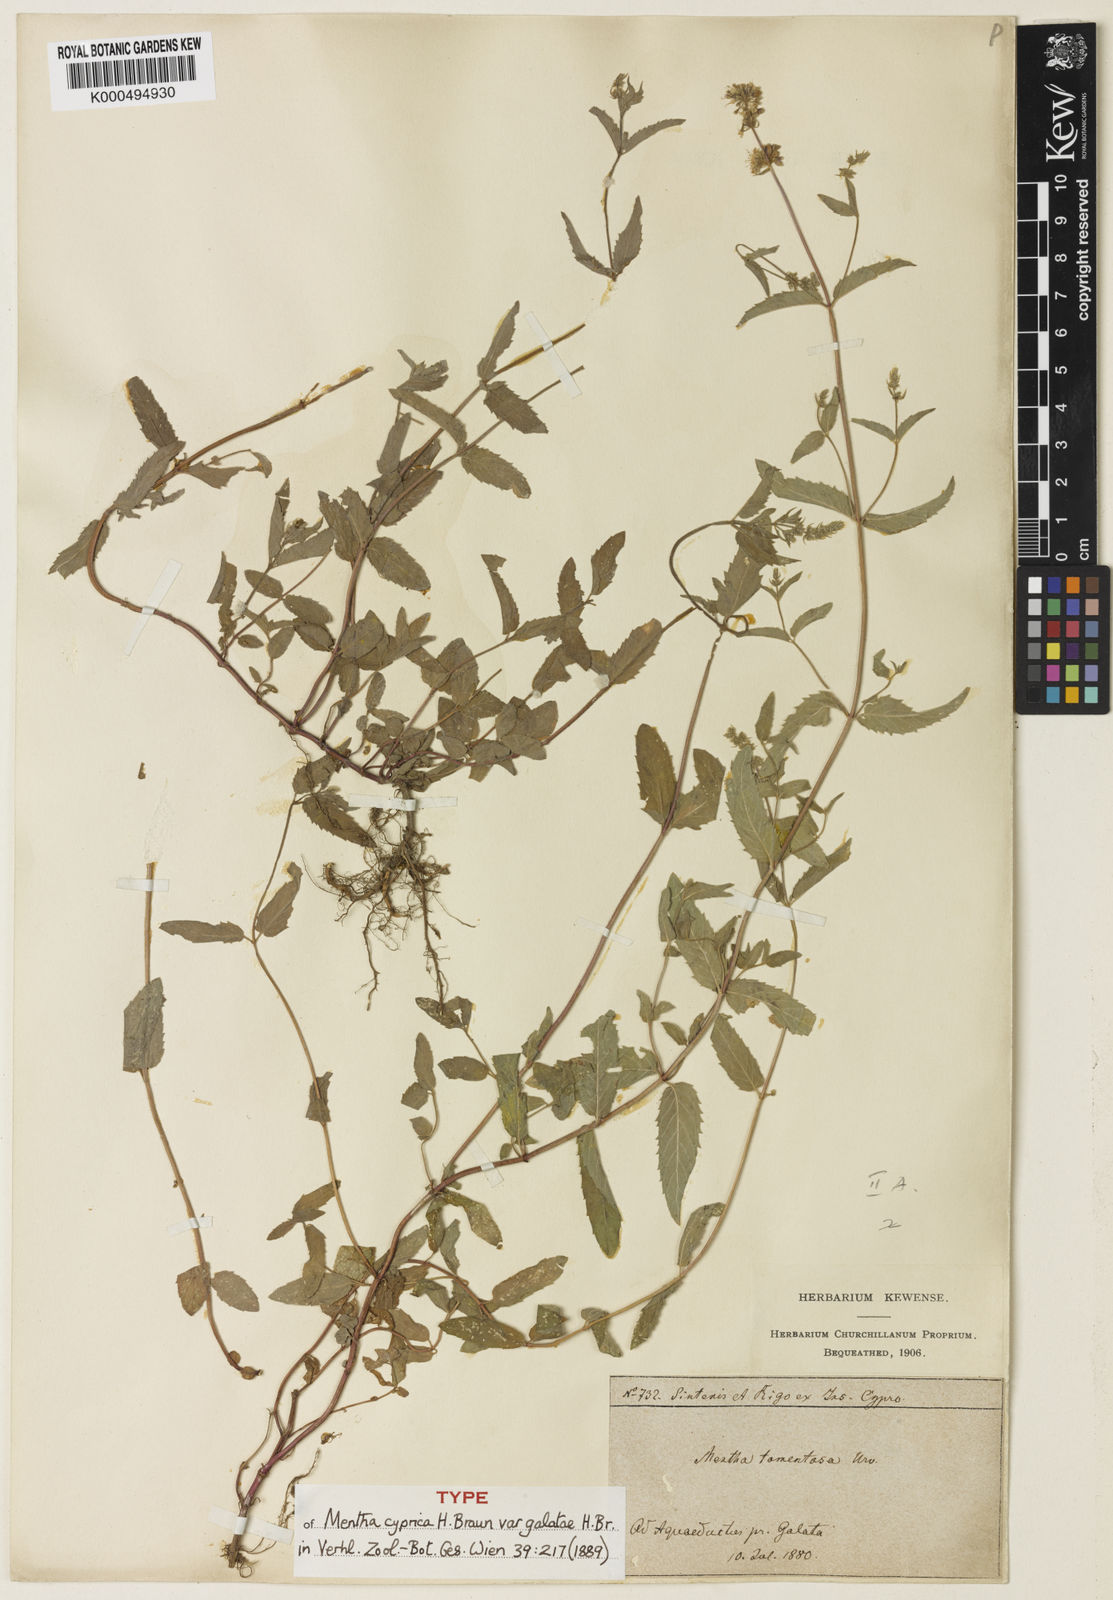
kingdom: Plantae
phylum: Tracheophyta
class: Magnoliopsida
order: Lamiales
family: Lamiaceae
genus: Mentha
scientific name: Mentha
